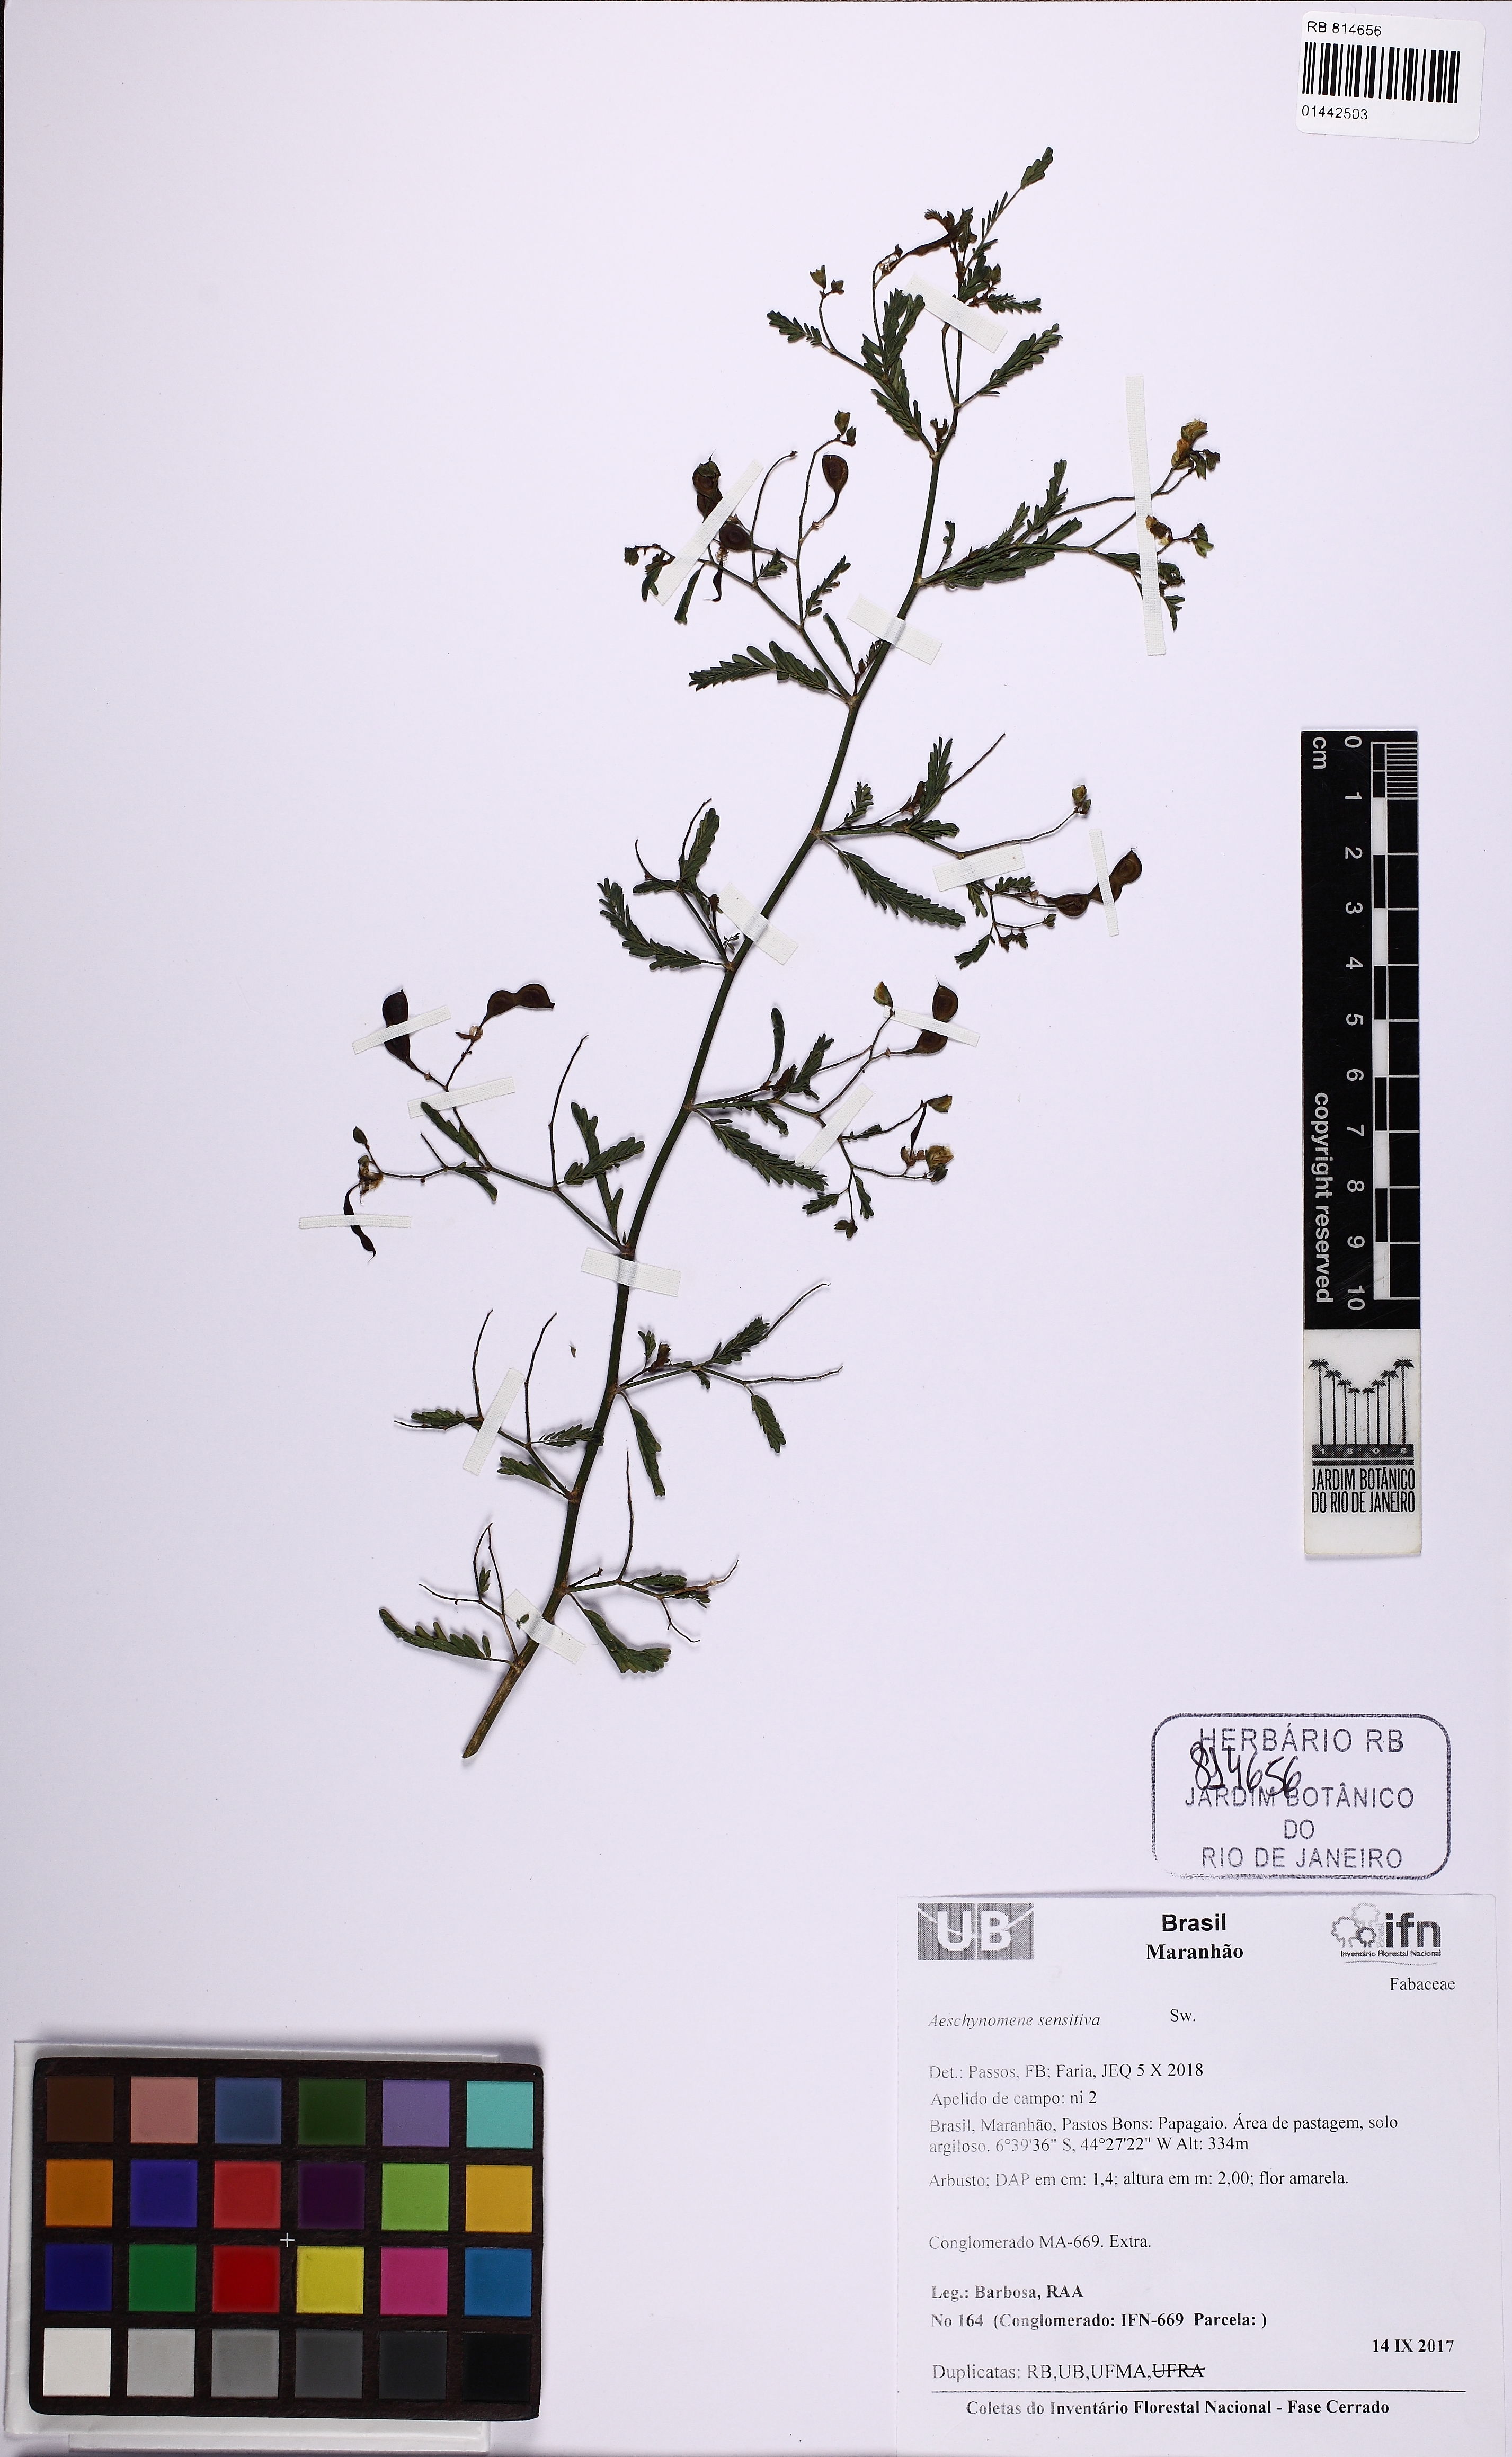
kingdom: Plantae
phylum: Tracheophyta
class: Magnoliopsida
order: Fabales
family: Fabaceae
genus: Aeschynomene
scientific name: Aeschynomene sensitiva
